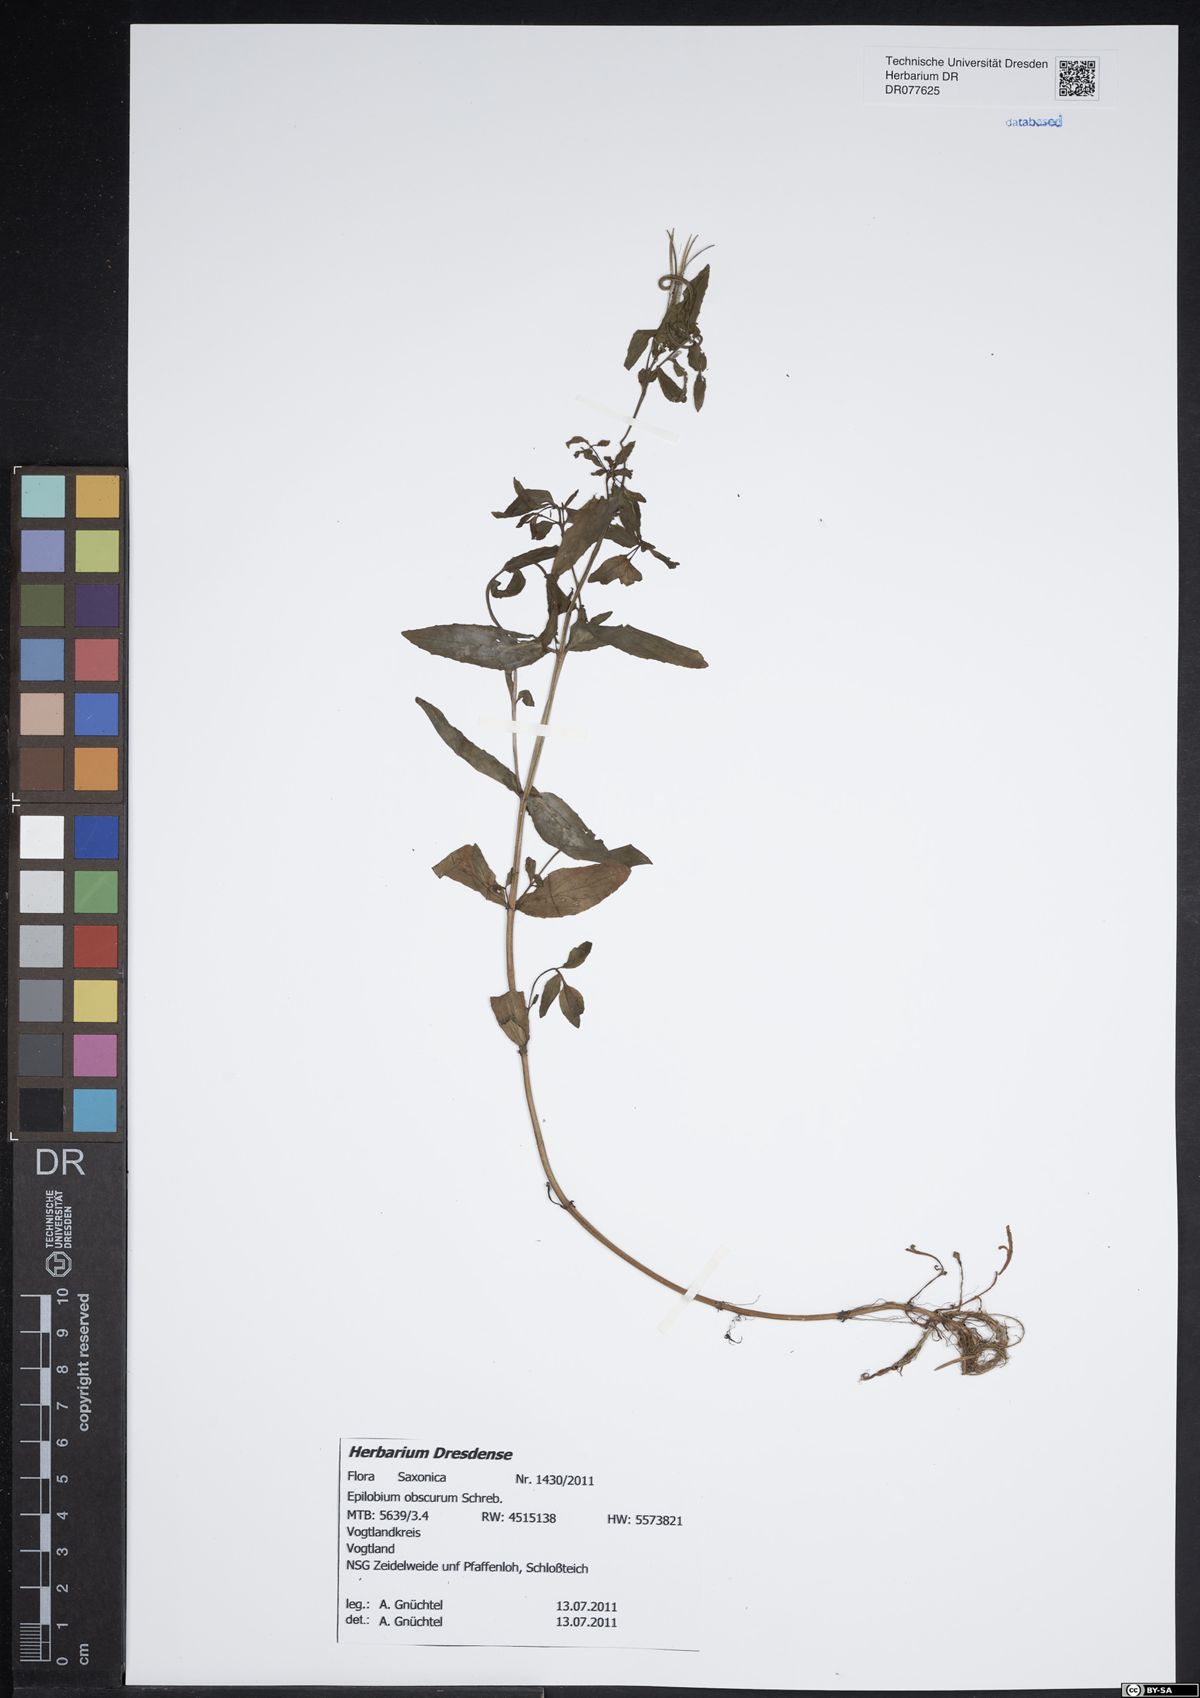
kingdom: Plantae
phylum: Tracheophyta
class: Magnoliopsida
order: Myrtales
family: Onagraceae
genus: Epilobium
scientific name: Epilobium obscurum
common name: Short-fruited willowherb
